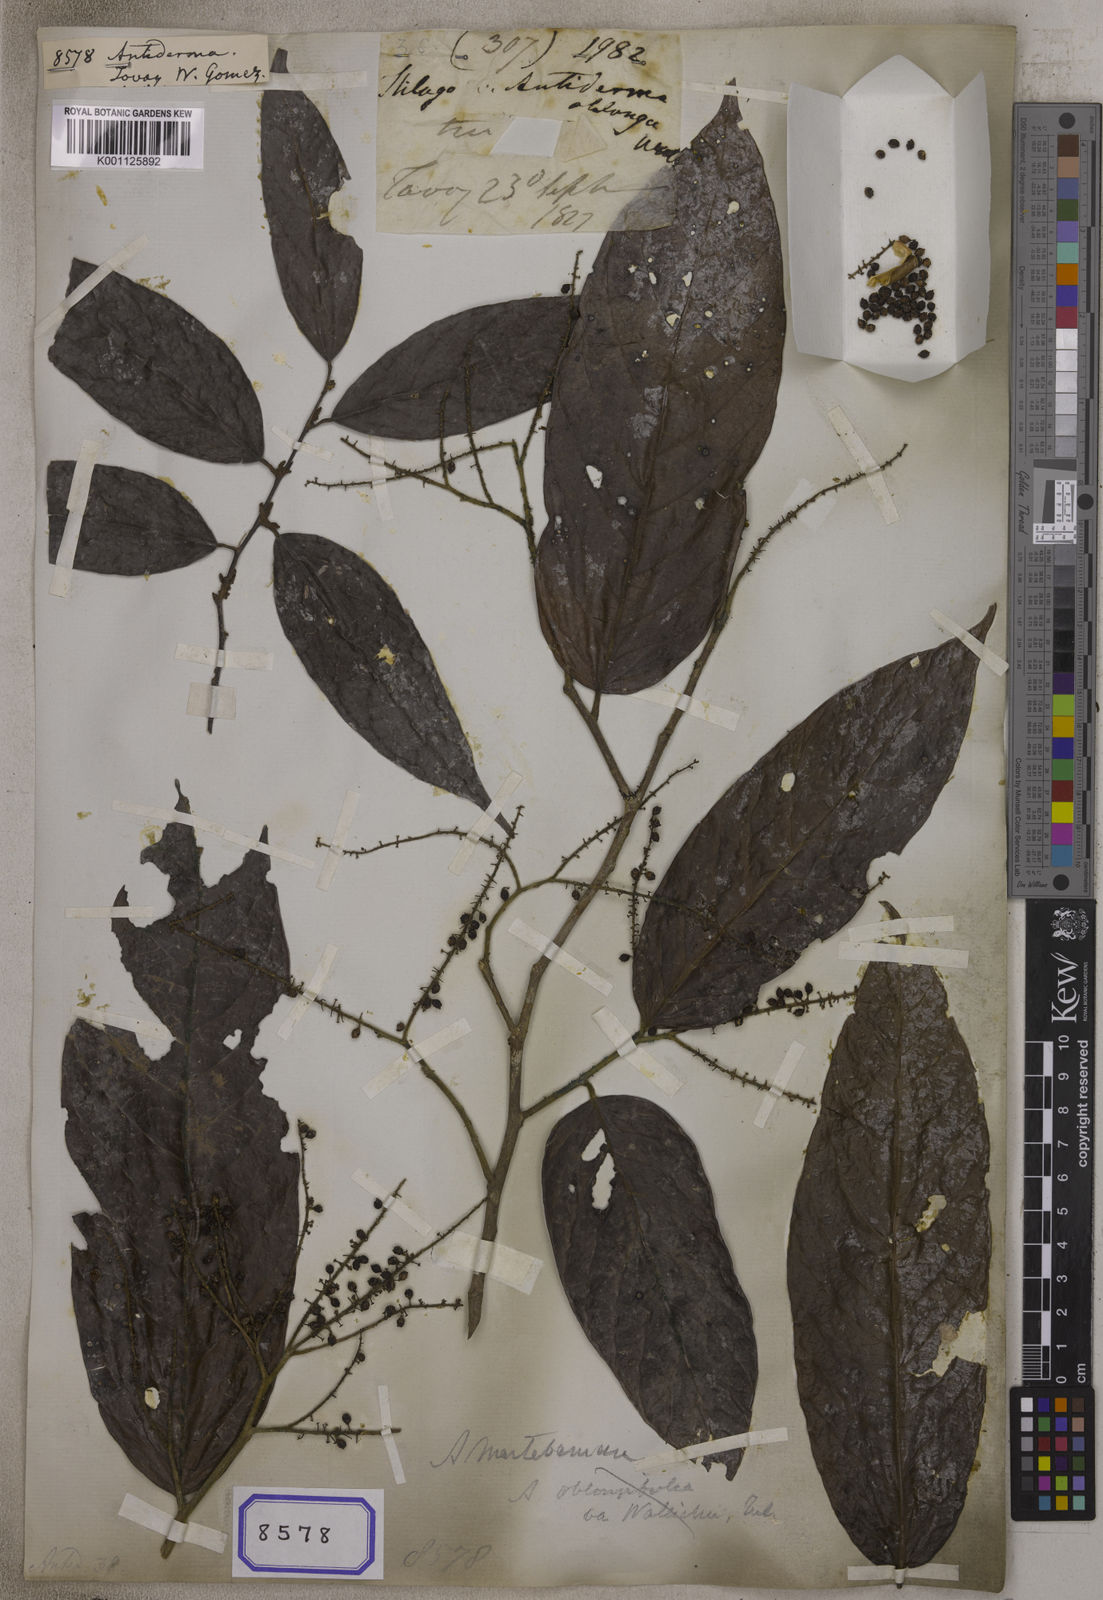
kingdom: Plantae
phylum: Tracheophyta
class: Magnoliopsida
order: Malpighiales
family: Phyllanthaceae
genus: Antidesma
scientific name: Antidesma
